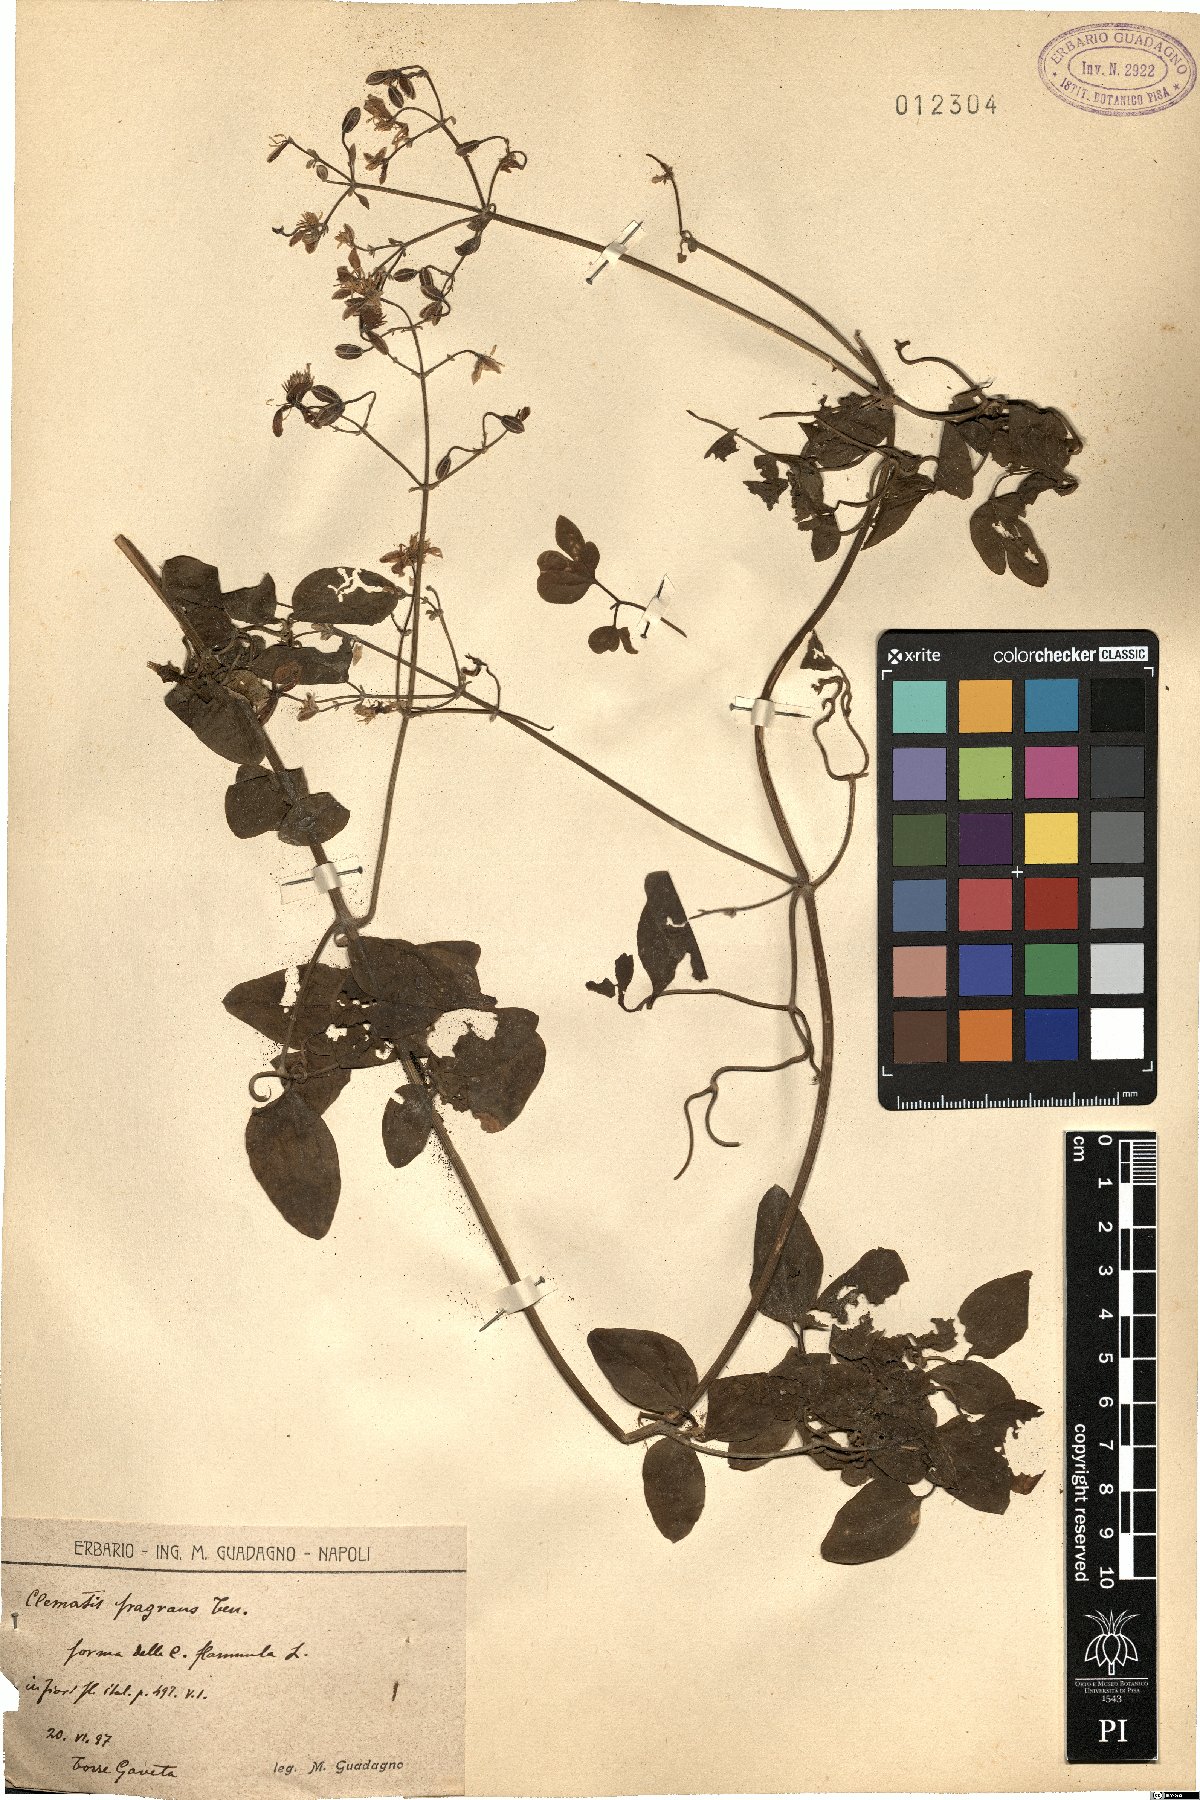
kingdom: Plantae
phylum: Tracheophyta
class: Magnoliopsida
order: Ranunculales
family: Ranunculaceae
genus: Clematis
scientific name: Clematis flammula
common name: Virgin's-bower
